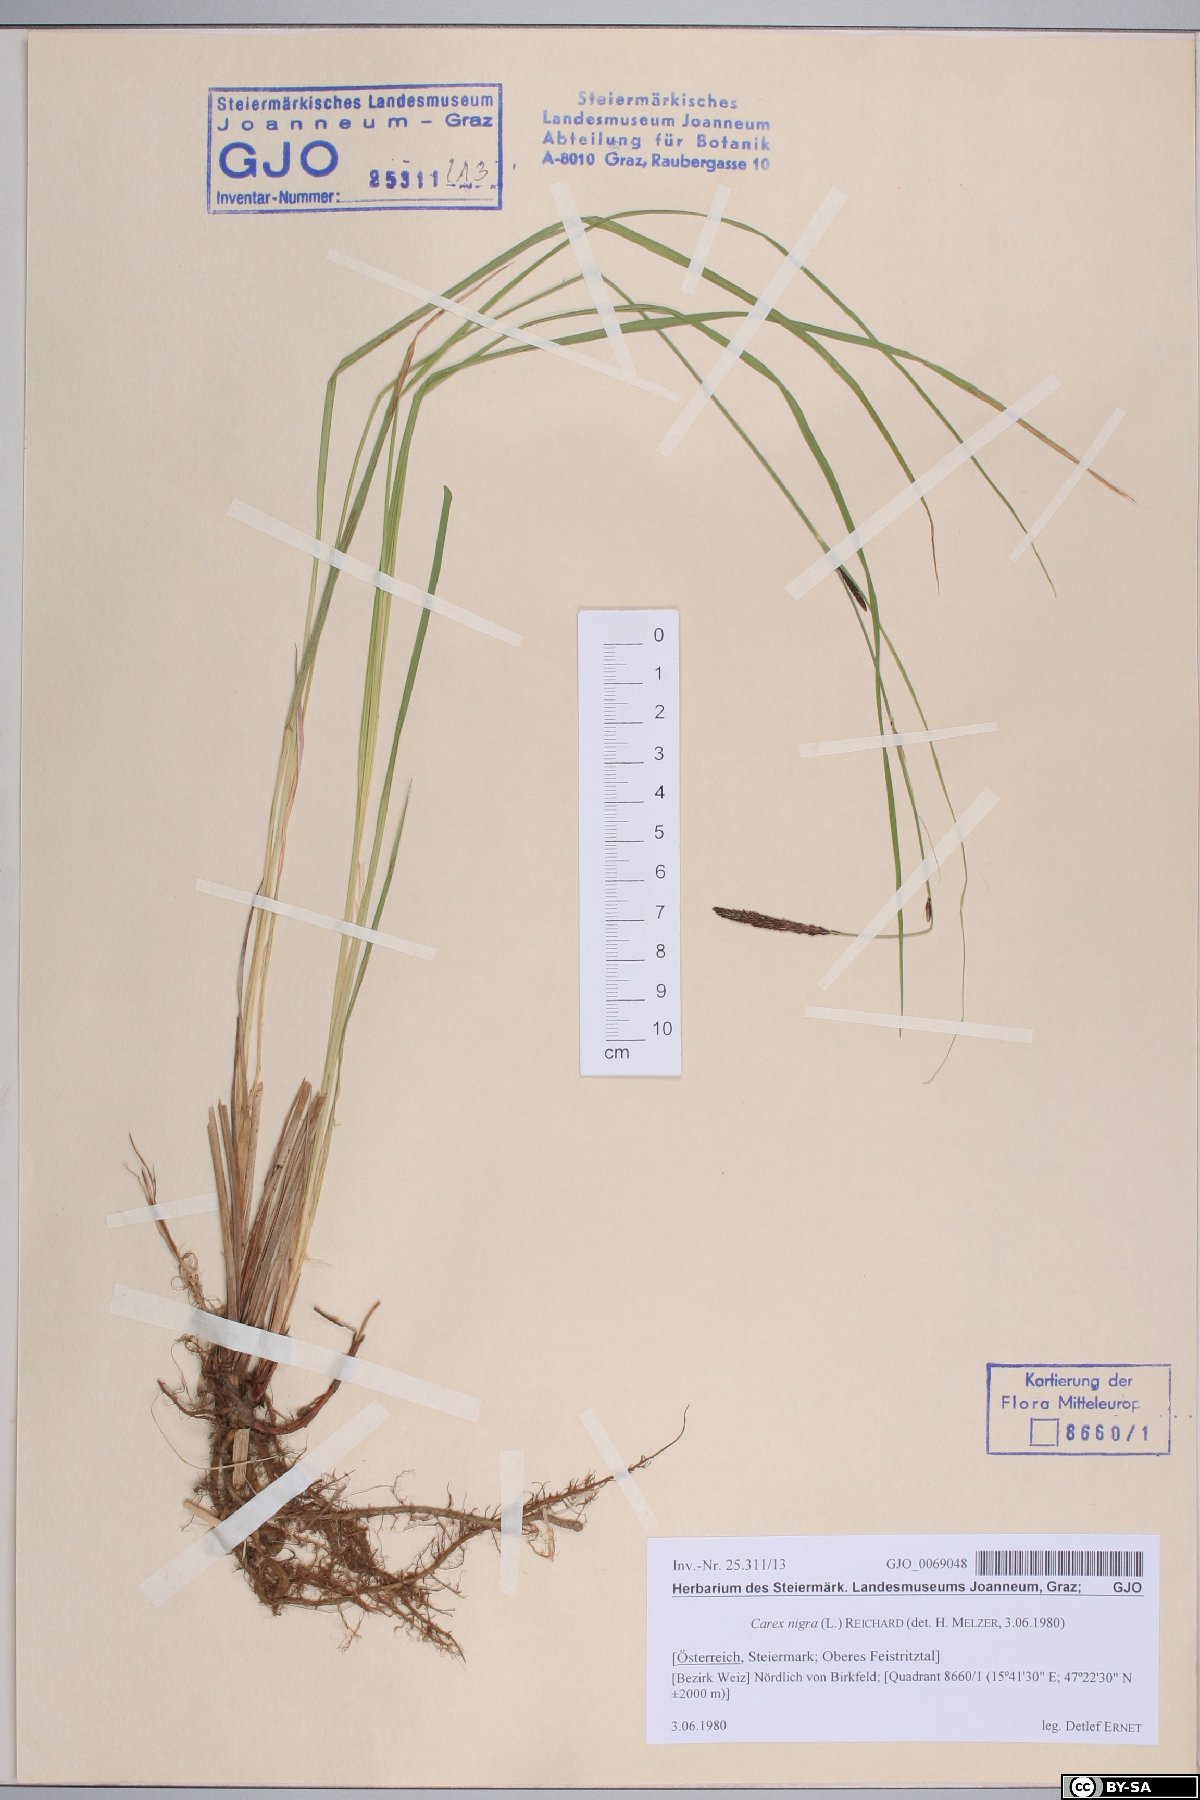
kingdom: Plantae
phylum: Tracheophyta
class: Liliopsida
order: Poales
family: Cyperaceae
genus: Carex
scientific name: Carex nigra
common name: Common sedge
